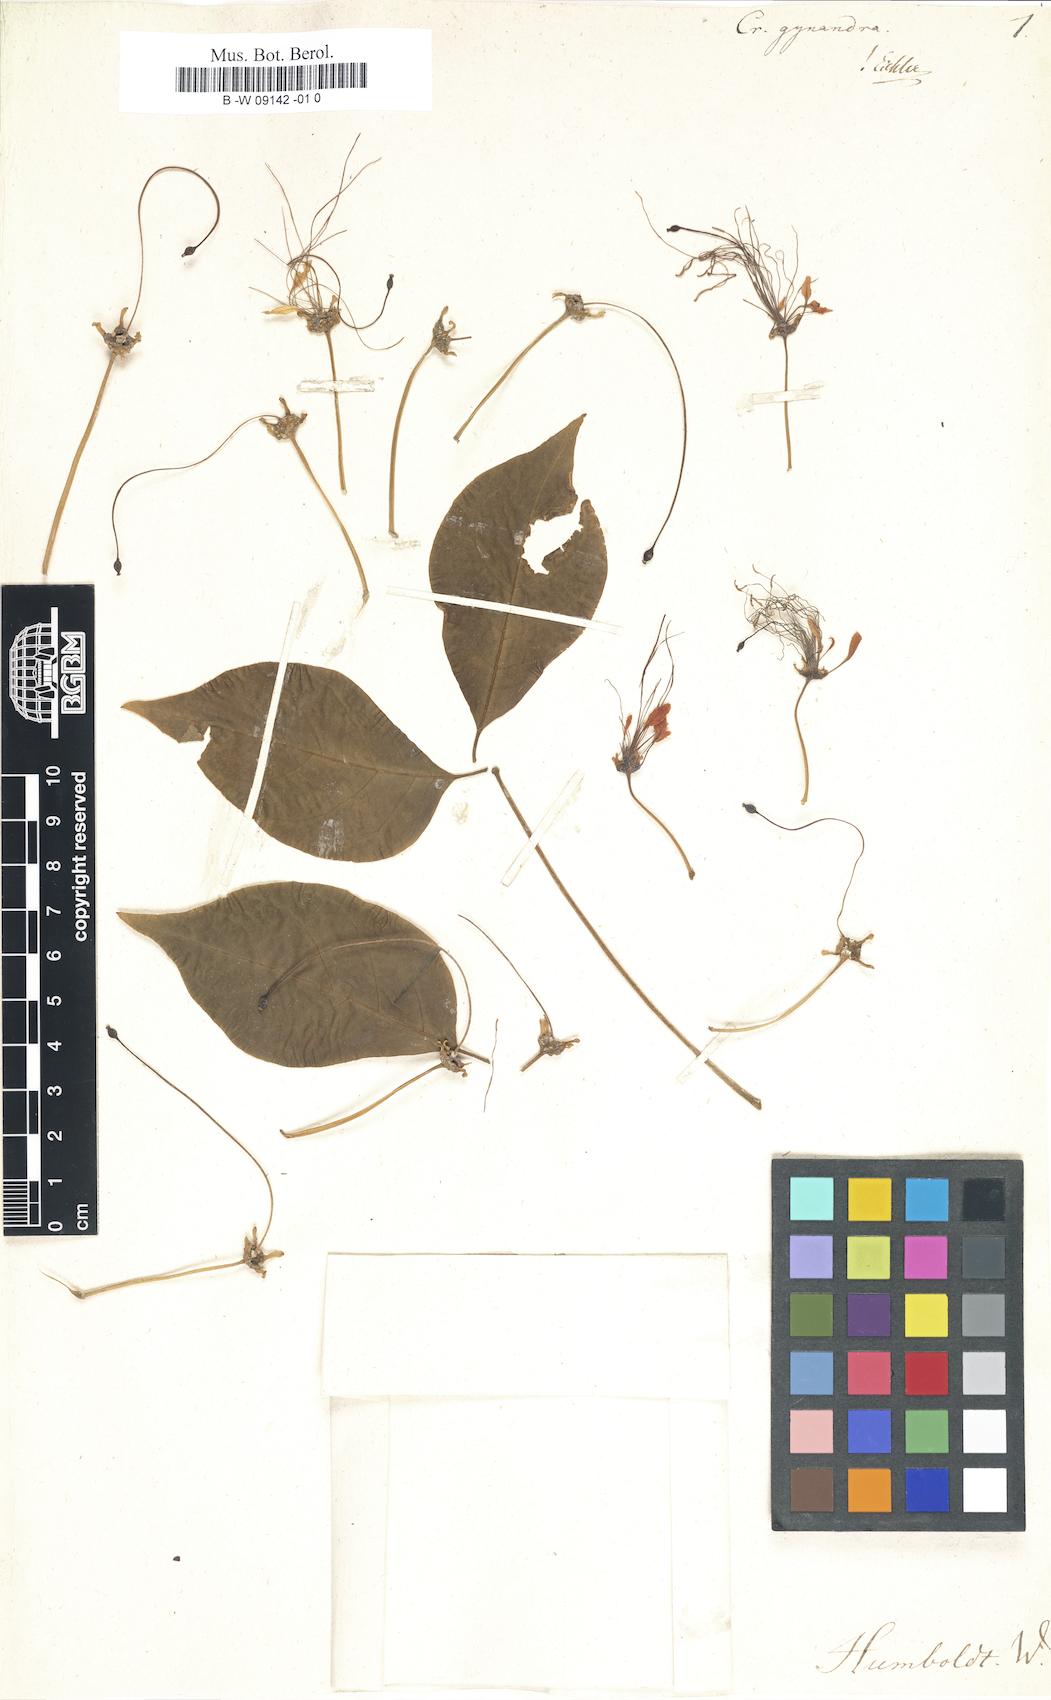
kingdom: Plantae
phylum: Tracheophyta
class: Magnoliopsida
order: Brassicales
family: Capparaceae
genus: Crateva
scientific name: Crateva tapia
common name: Garlic-pear
